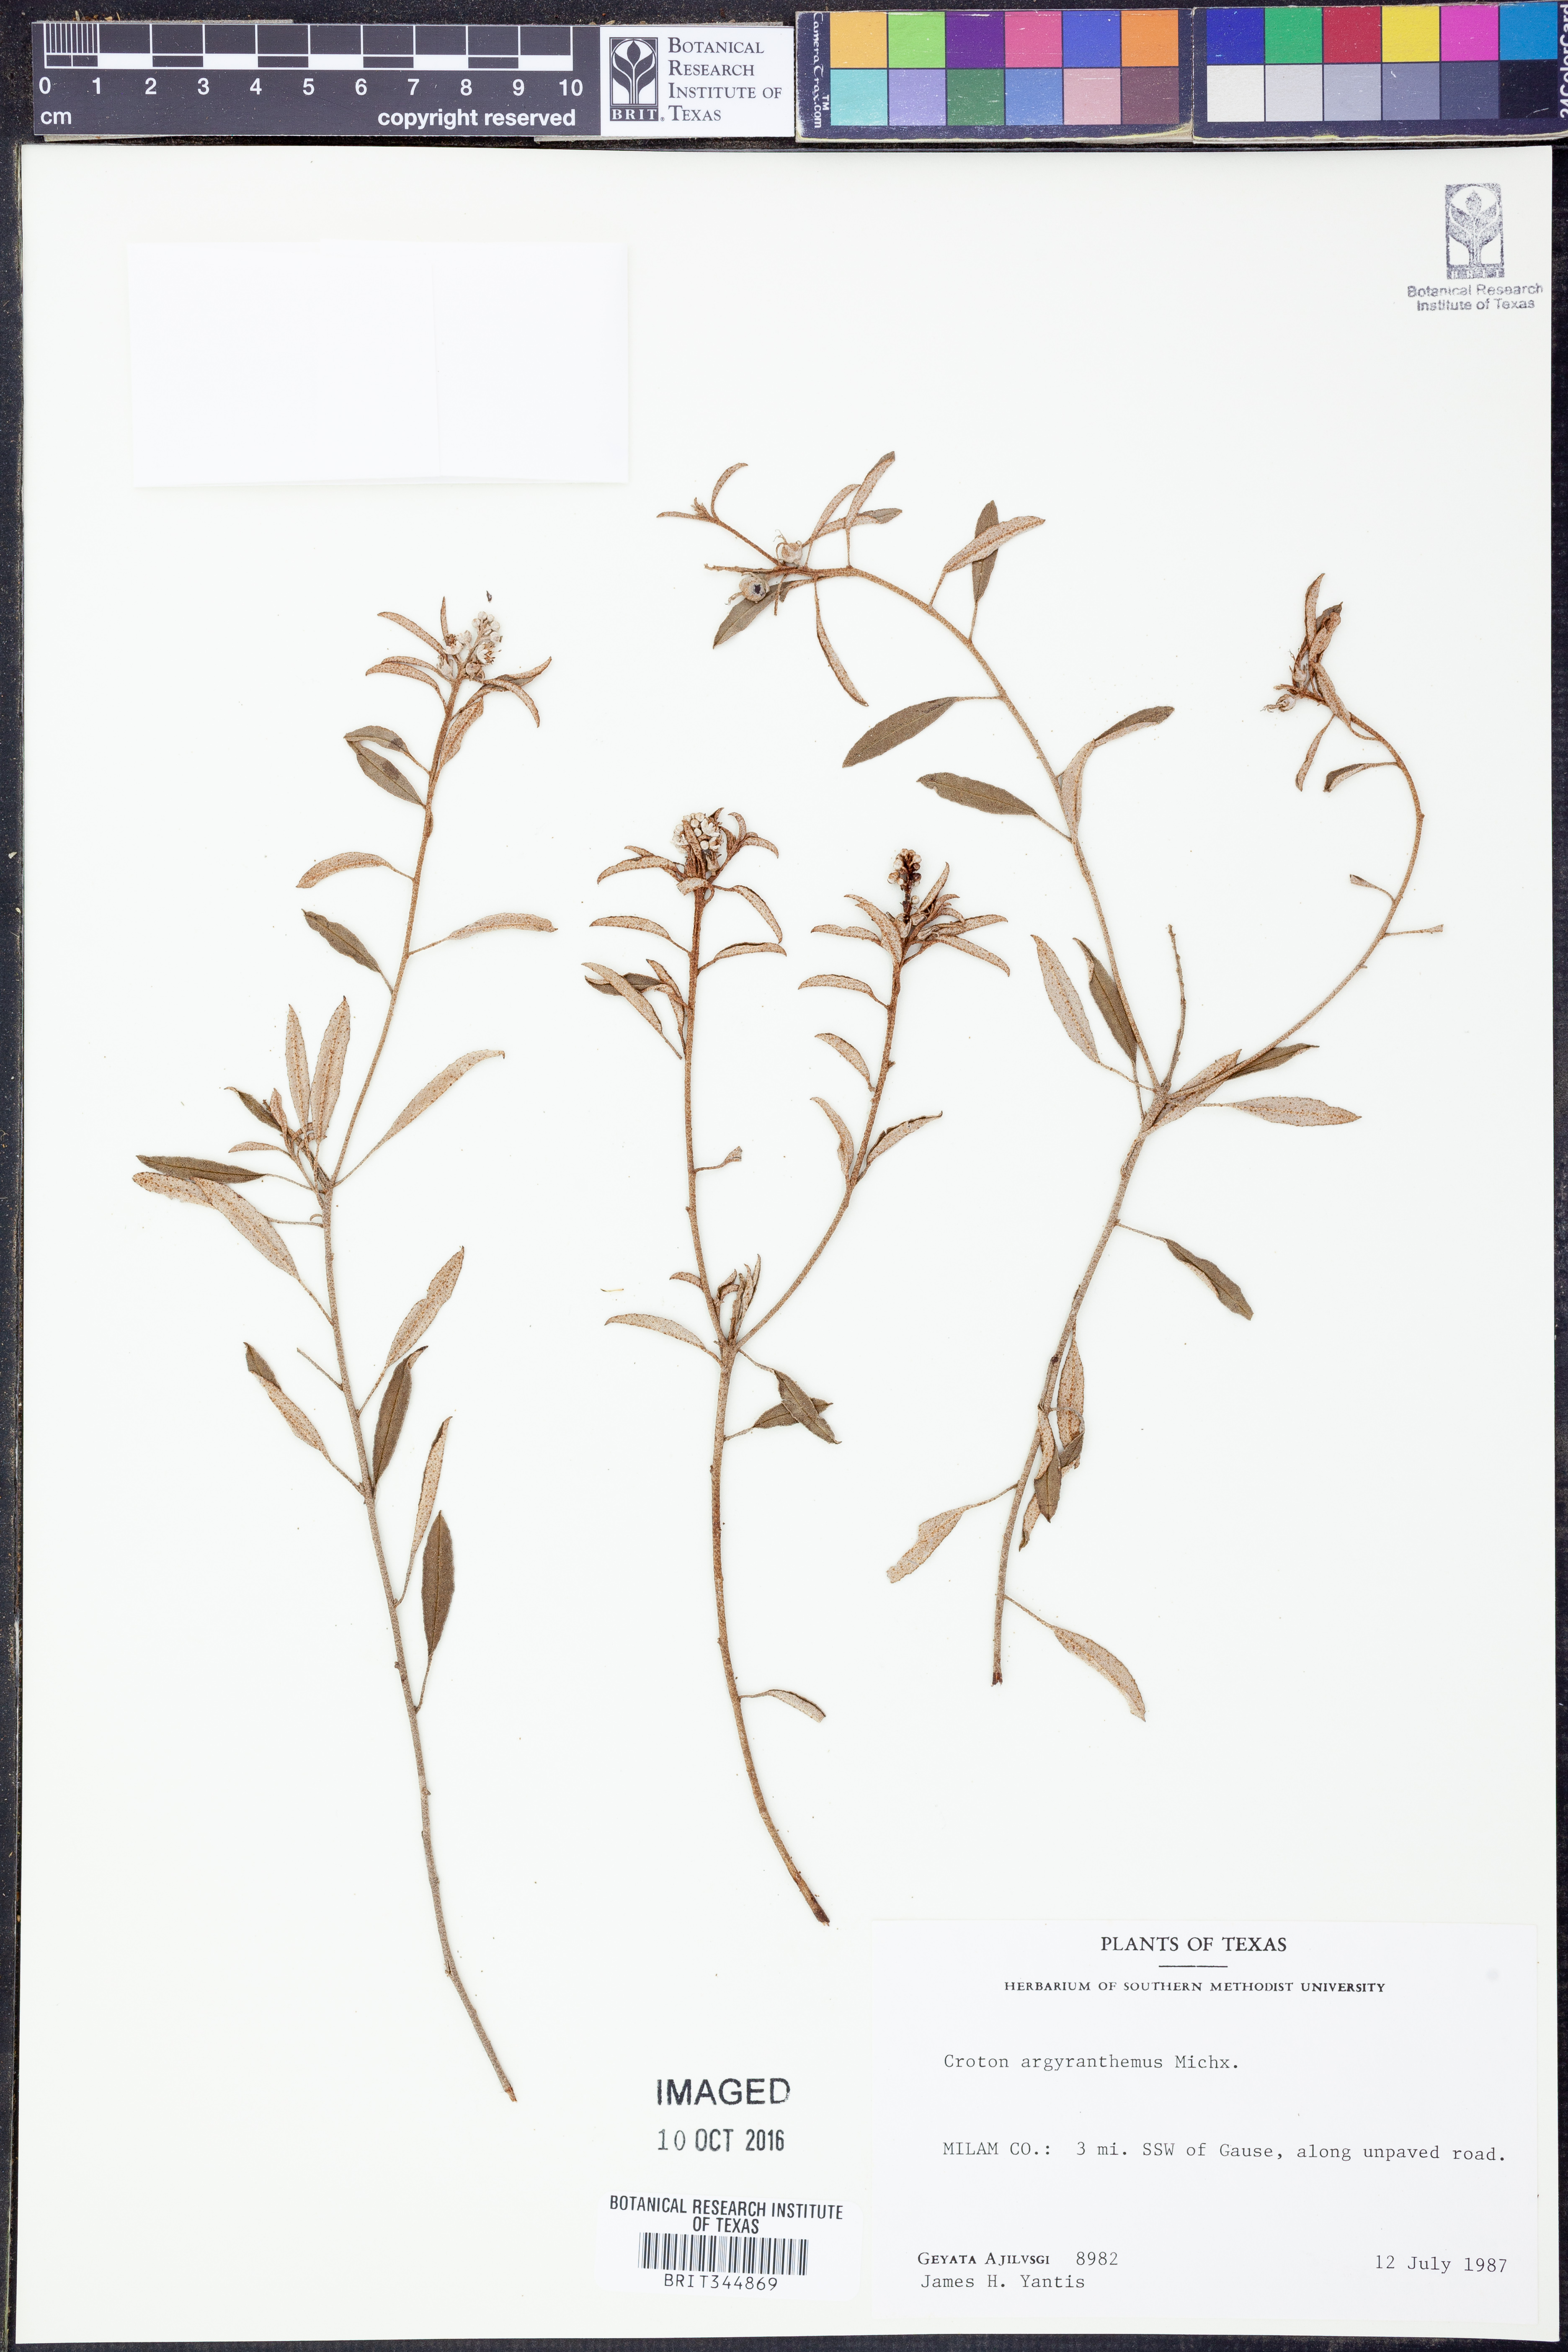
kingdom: Plantae
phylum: Tracheophyta
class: Magnoliopsida
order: Malpighiales
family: Euphorbiaceae
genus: Croton
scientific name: Croton argyranthemus
